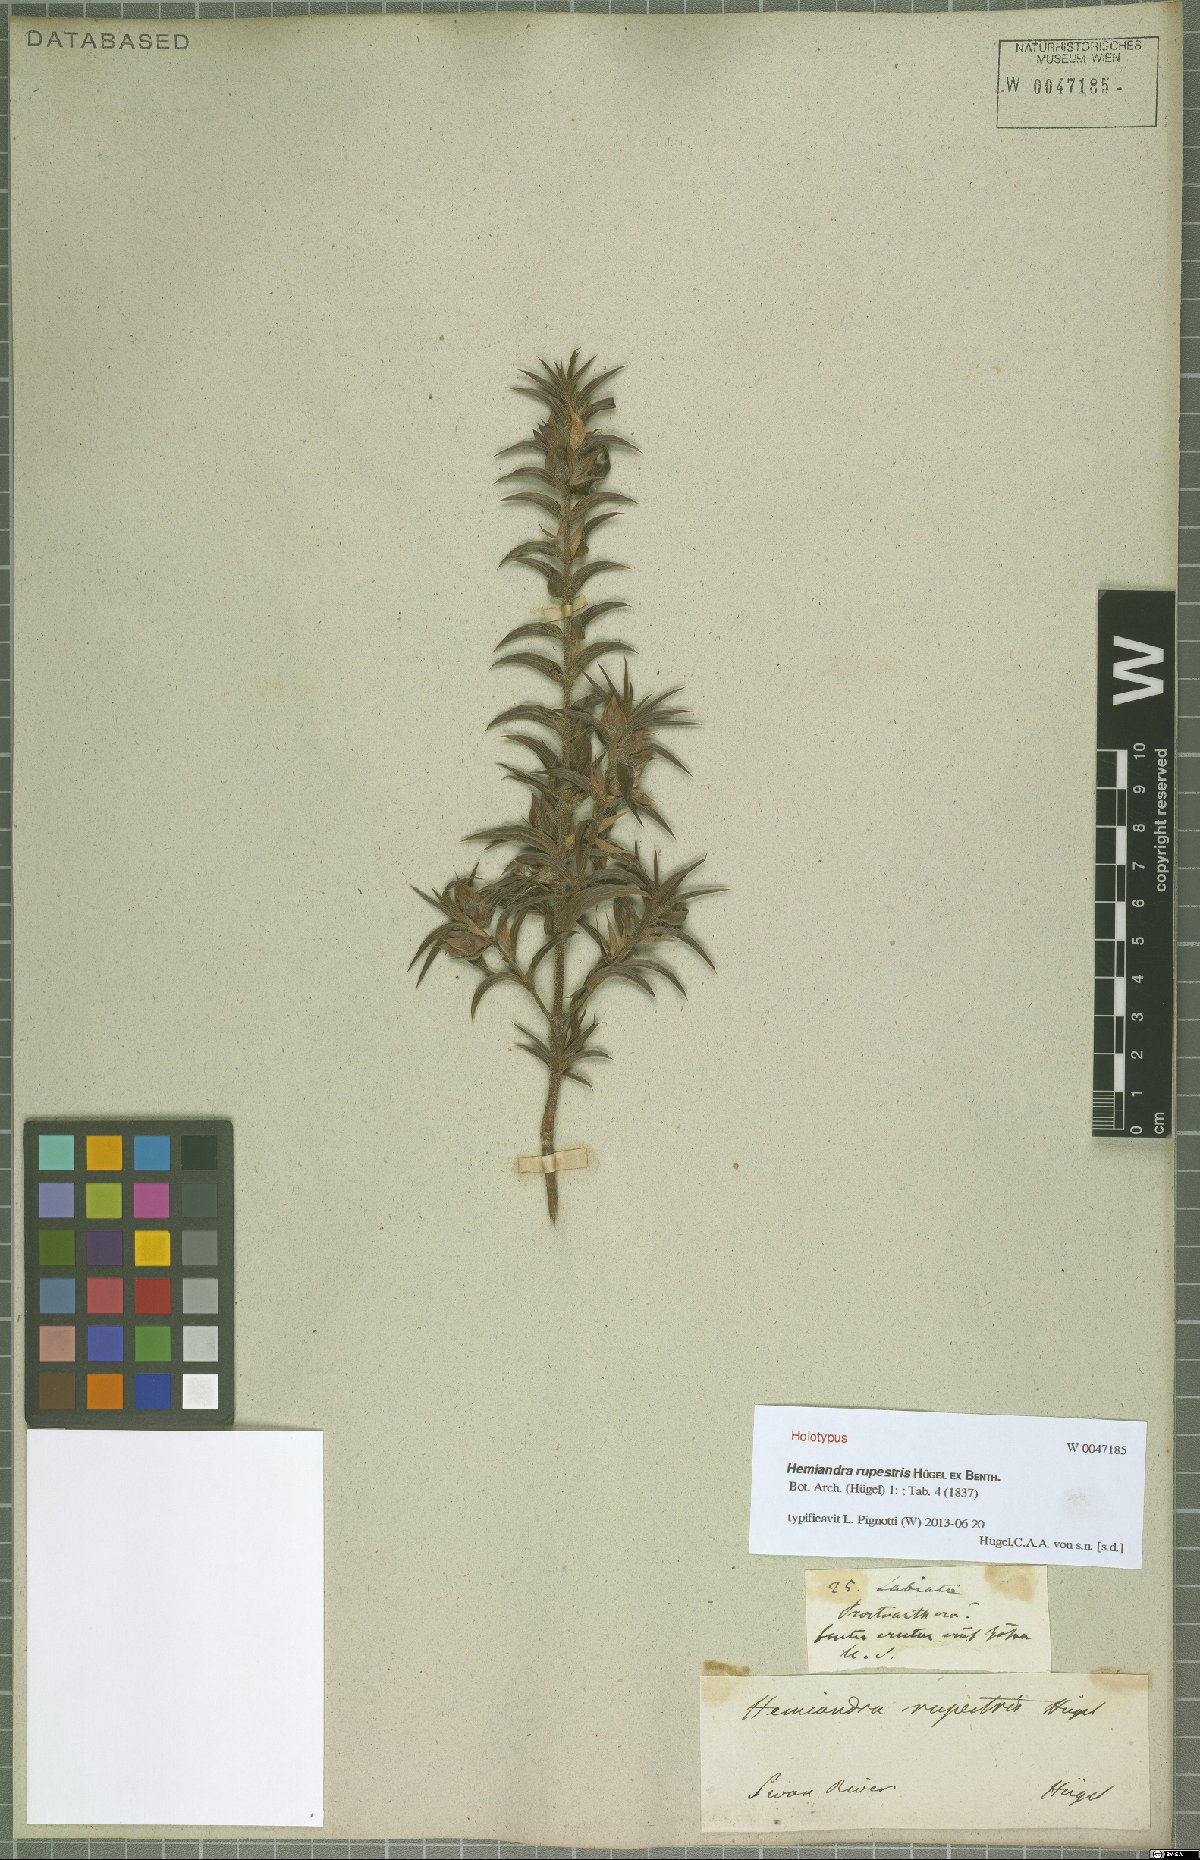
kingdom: Plantae
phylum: Tracheophyta
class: Magnoliopsida
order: Lamiales
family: Lamiaceae
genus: Hemiandra
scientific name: Hemiandra rupestris
